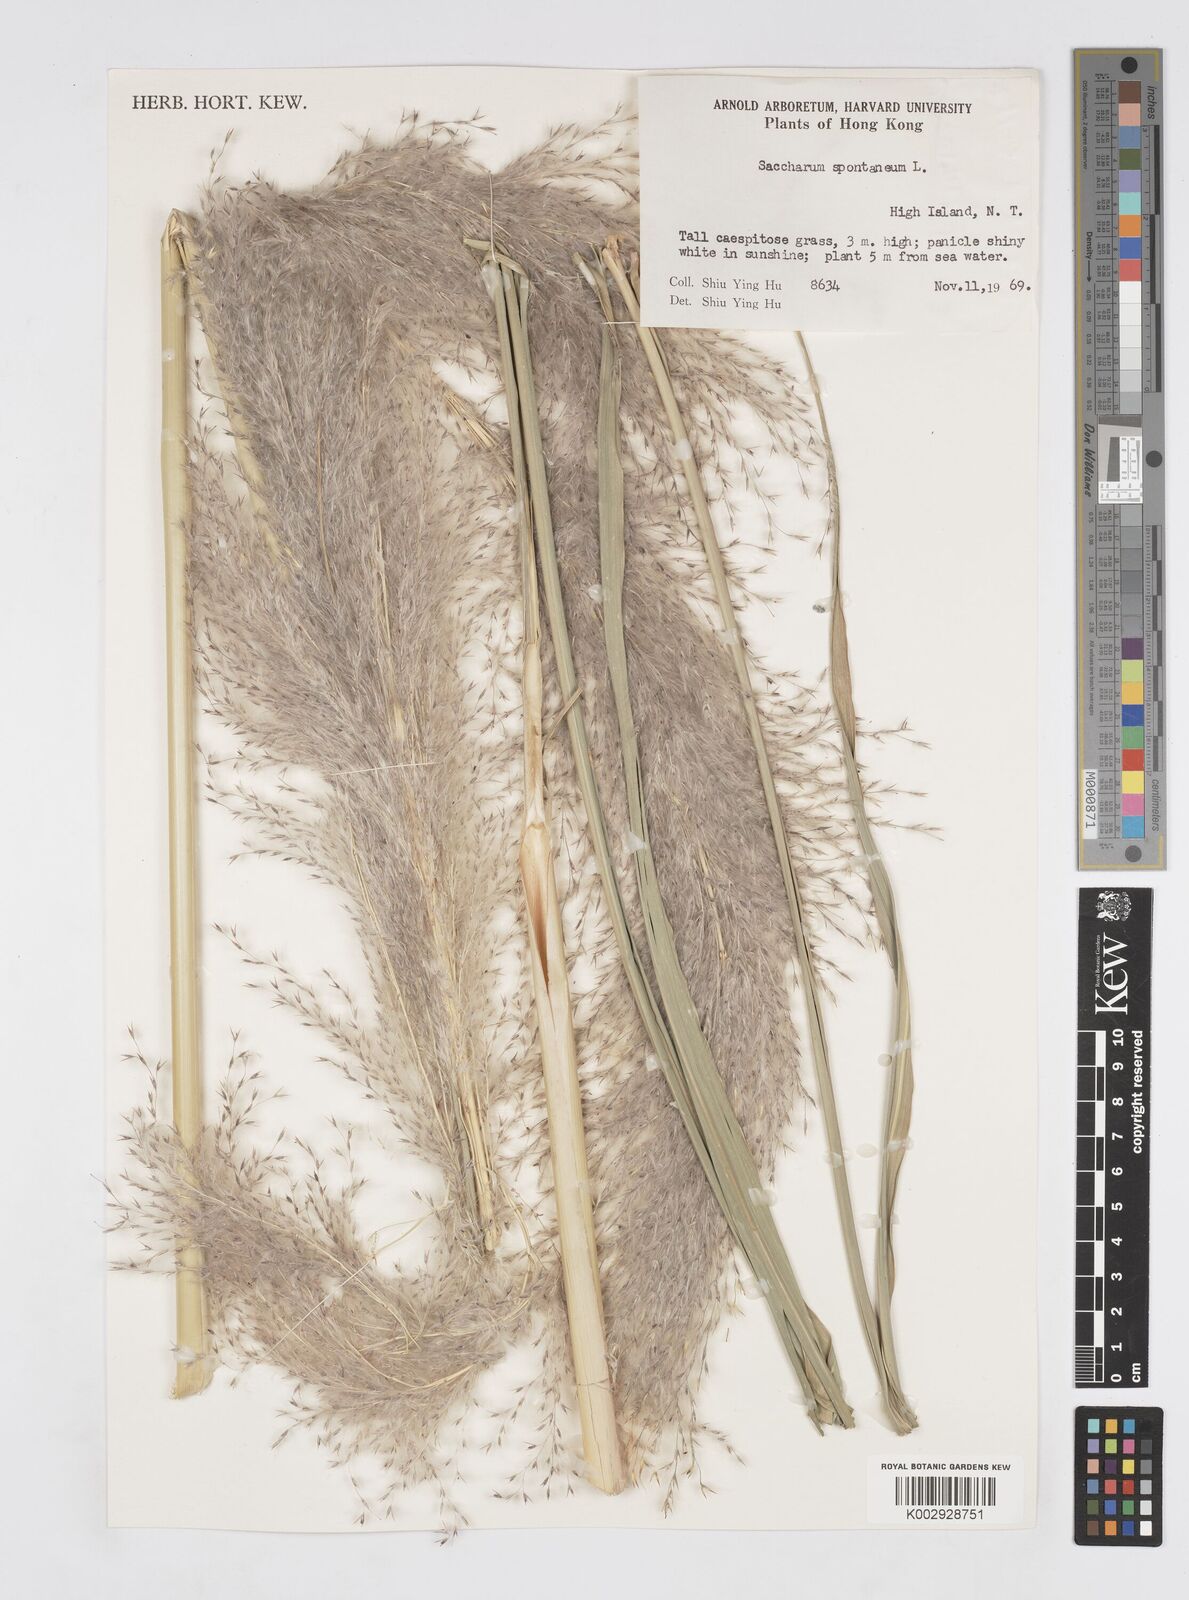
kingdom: Plantae
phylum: Tracheophyta
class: Liliopsida
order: Poales
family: Poaceae
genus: Tripidium
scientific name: Tripidium arundinaceum
